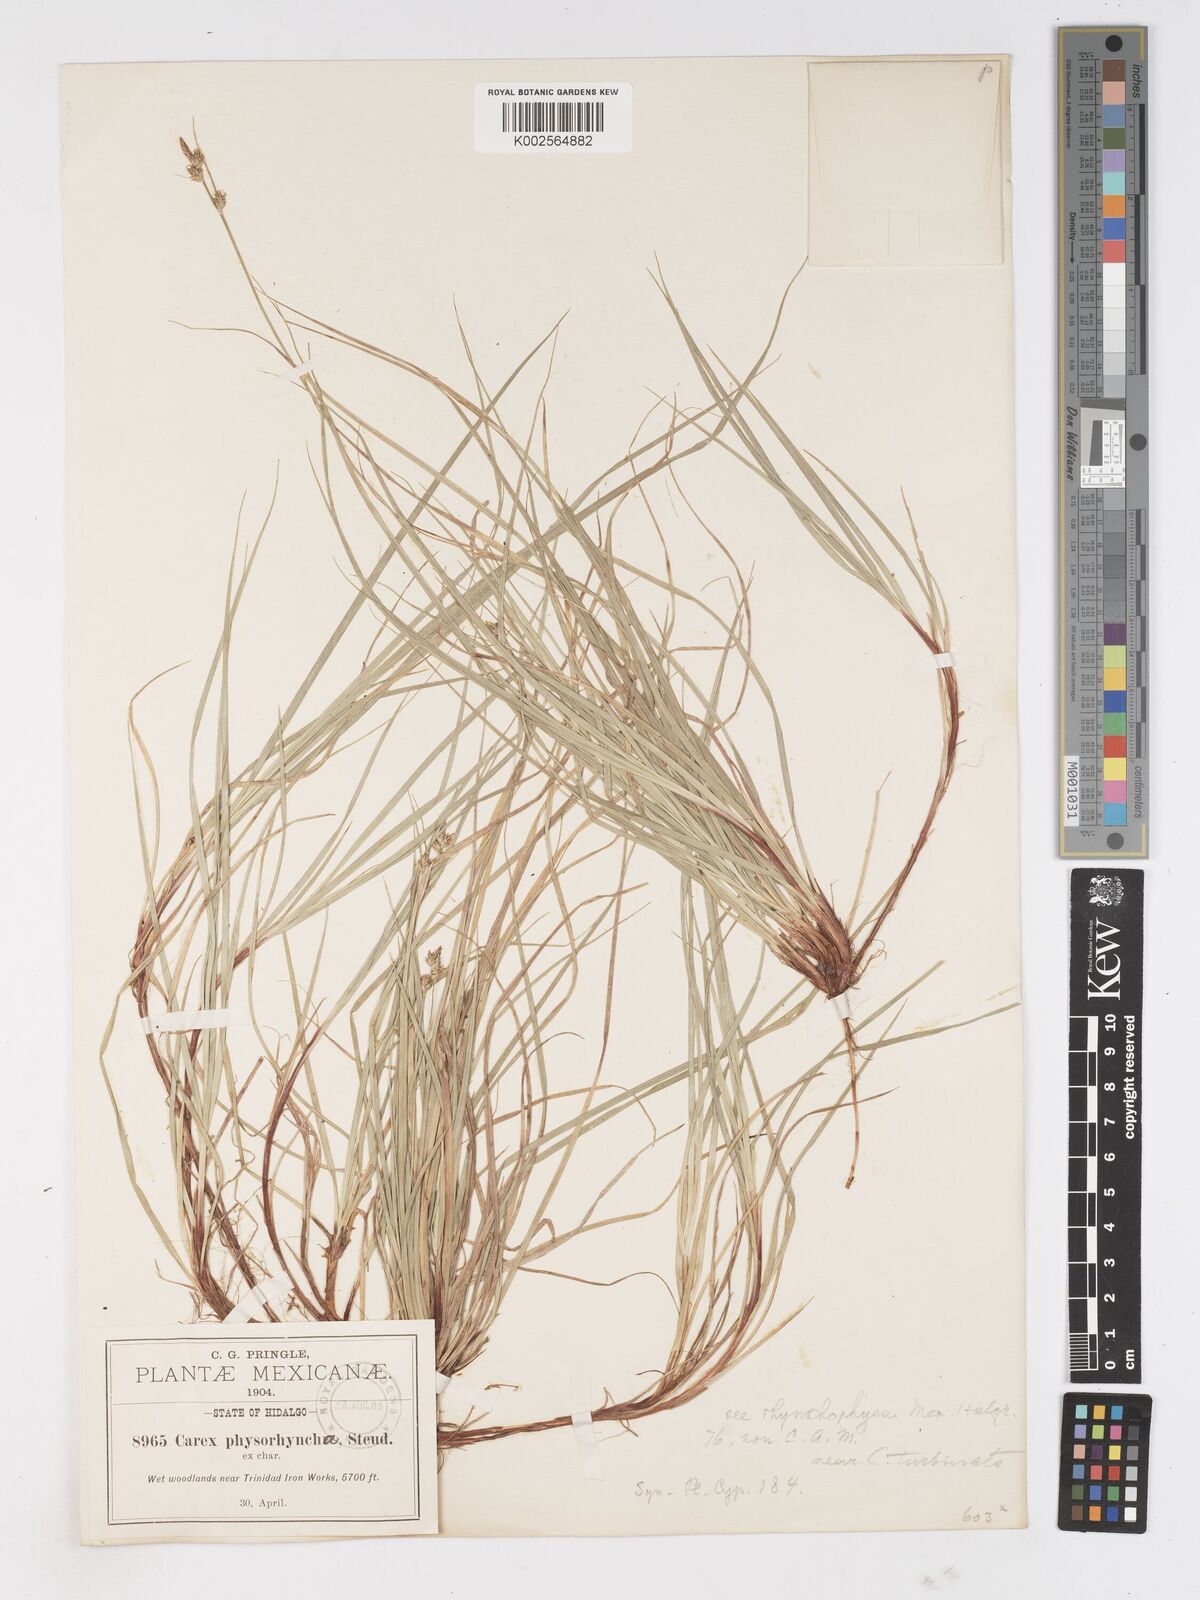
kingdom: Plantae
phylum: Tracheophyta
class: Liliopsida
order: Poales
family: Cyperaceae
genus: Carex
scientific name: Carex albicans
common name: Bellow-beaked sedge
